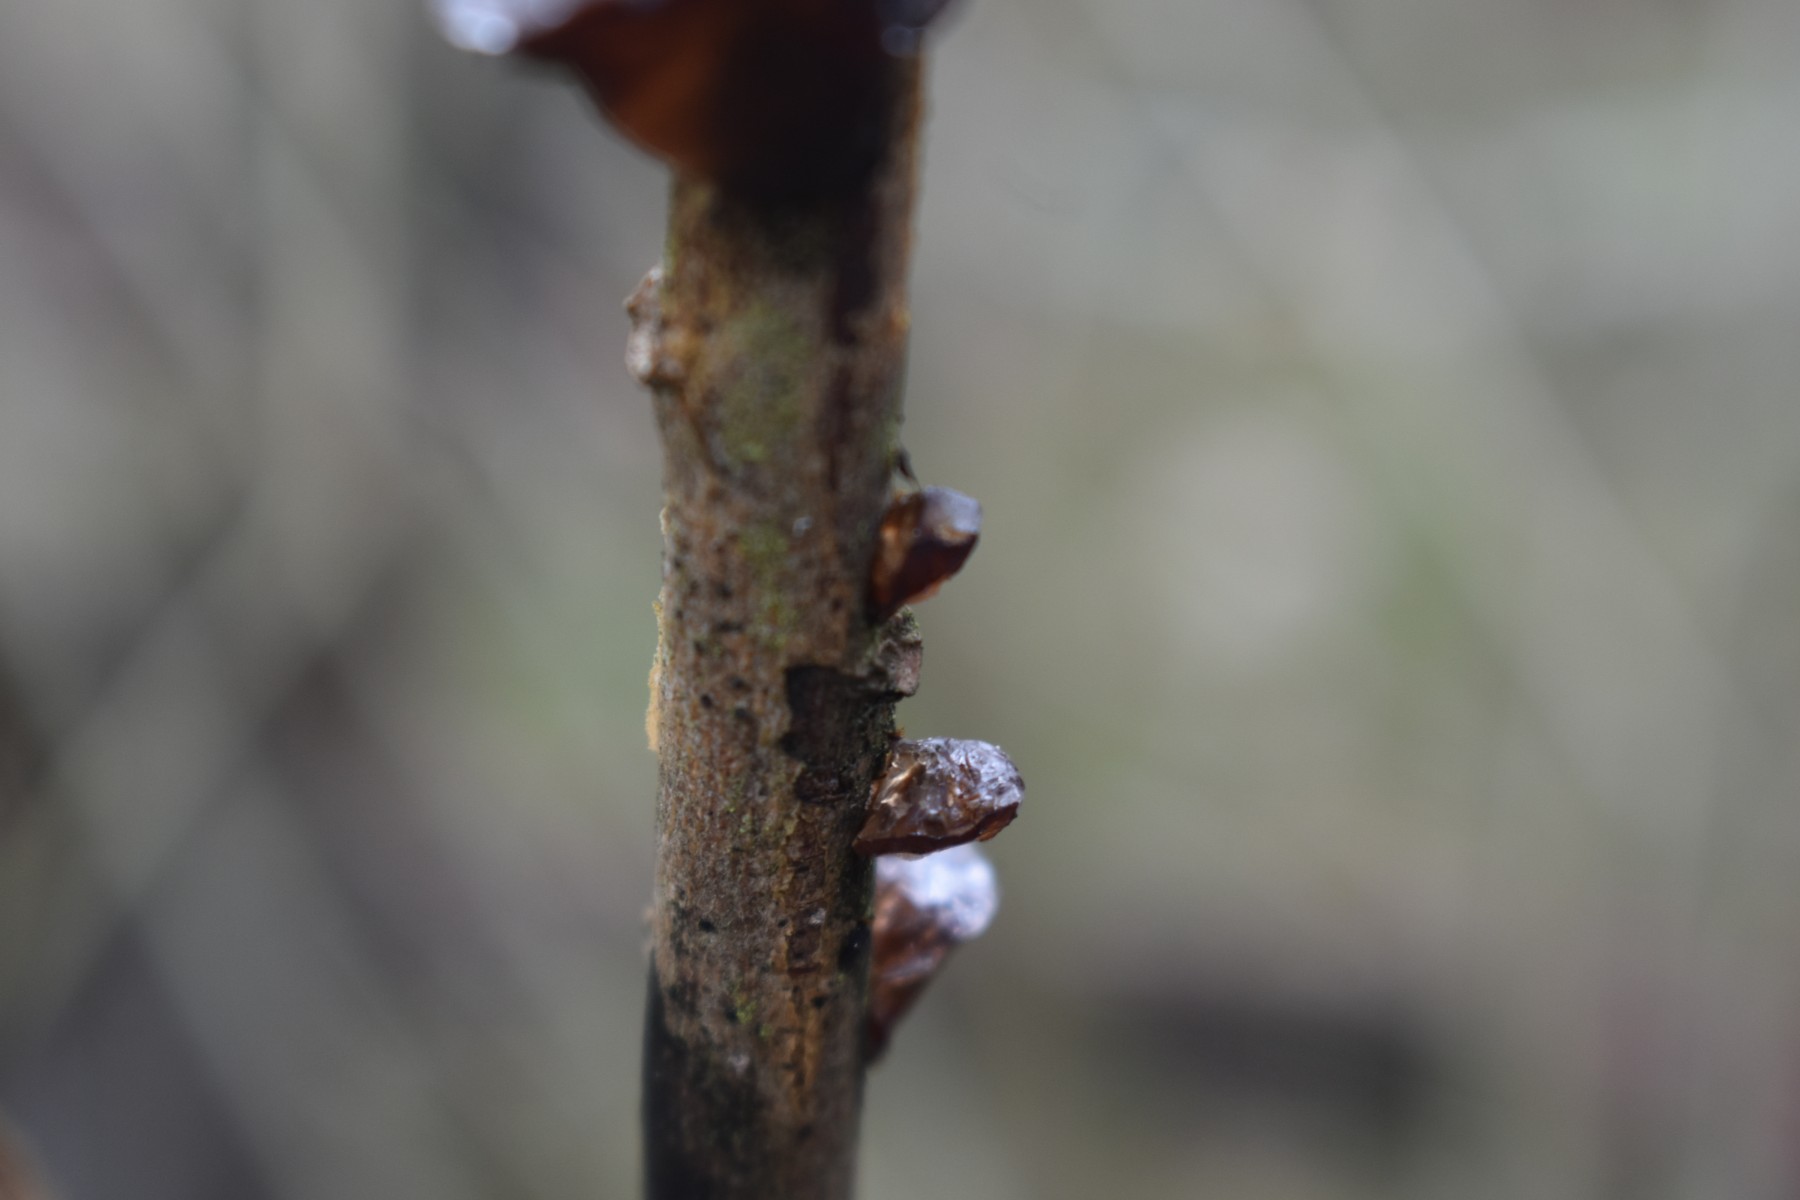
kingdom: Fungi
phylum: Basidiomycota
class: Agaricomycetes
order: Auriculariales
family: Auriculariaceae
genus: Exidia
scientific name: Exidia recisa
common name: pile-bævretop
